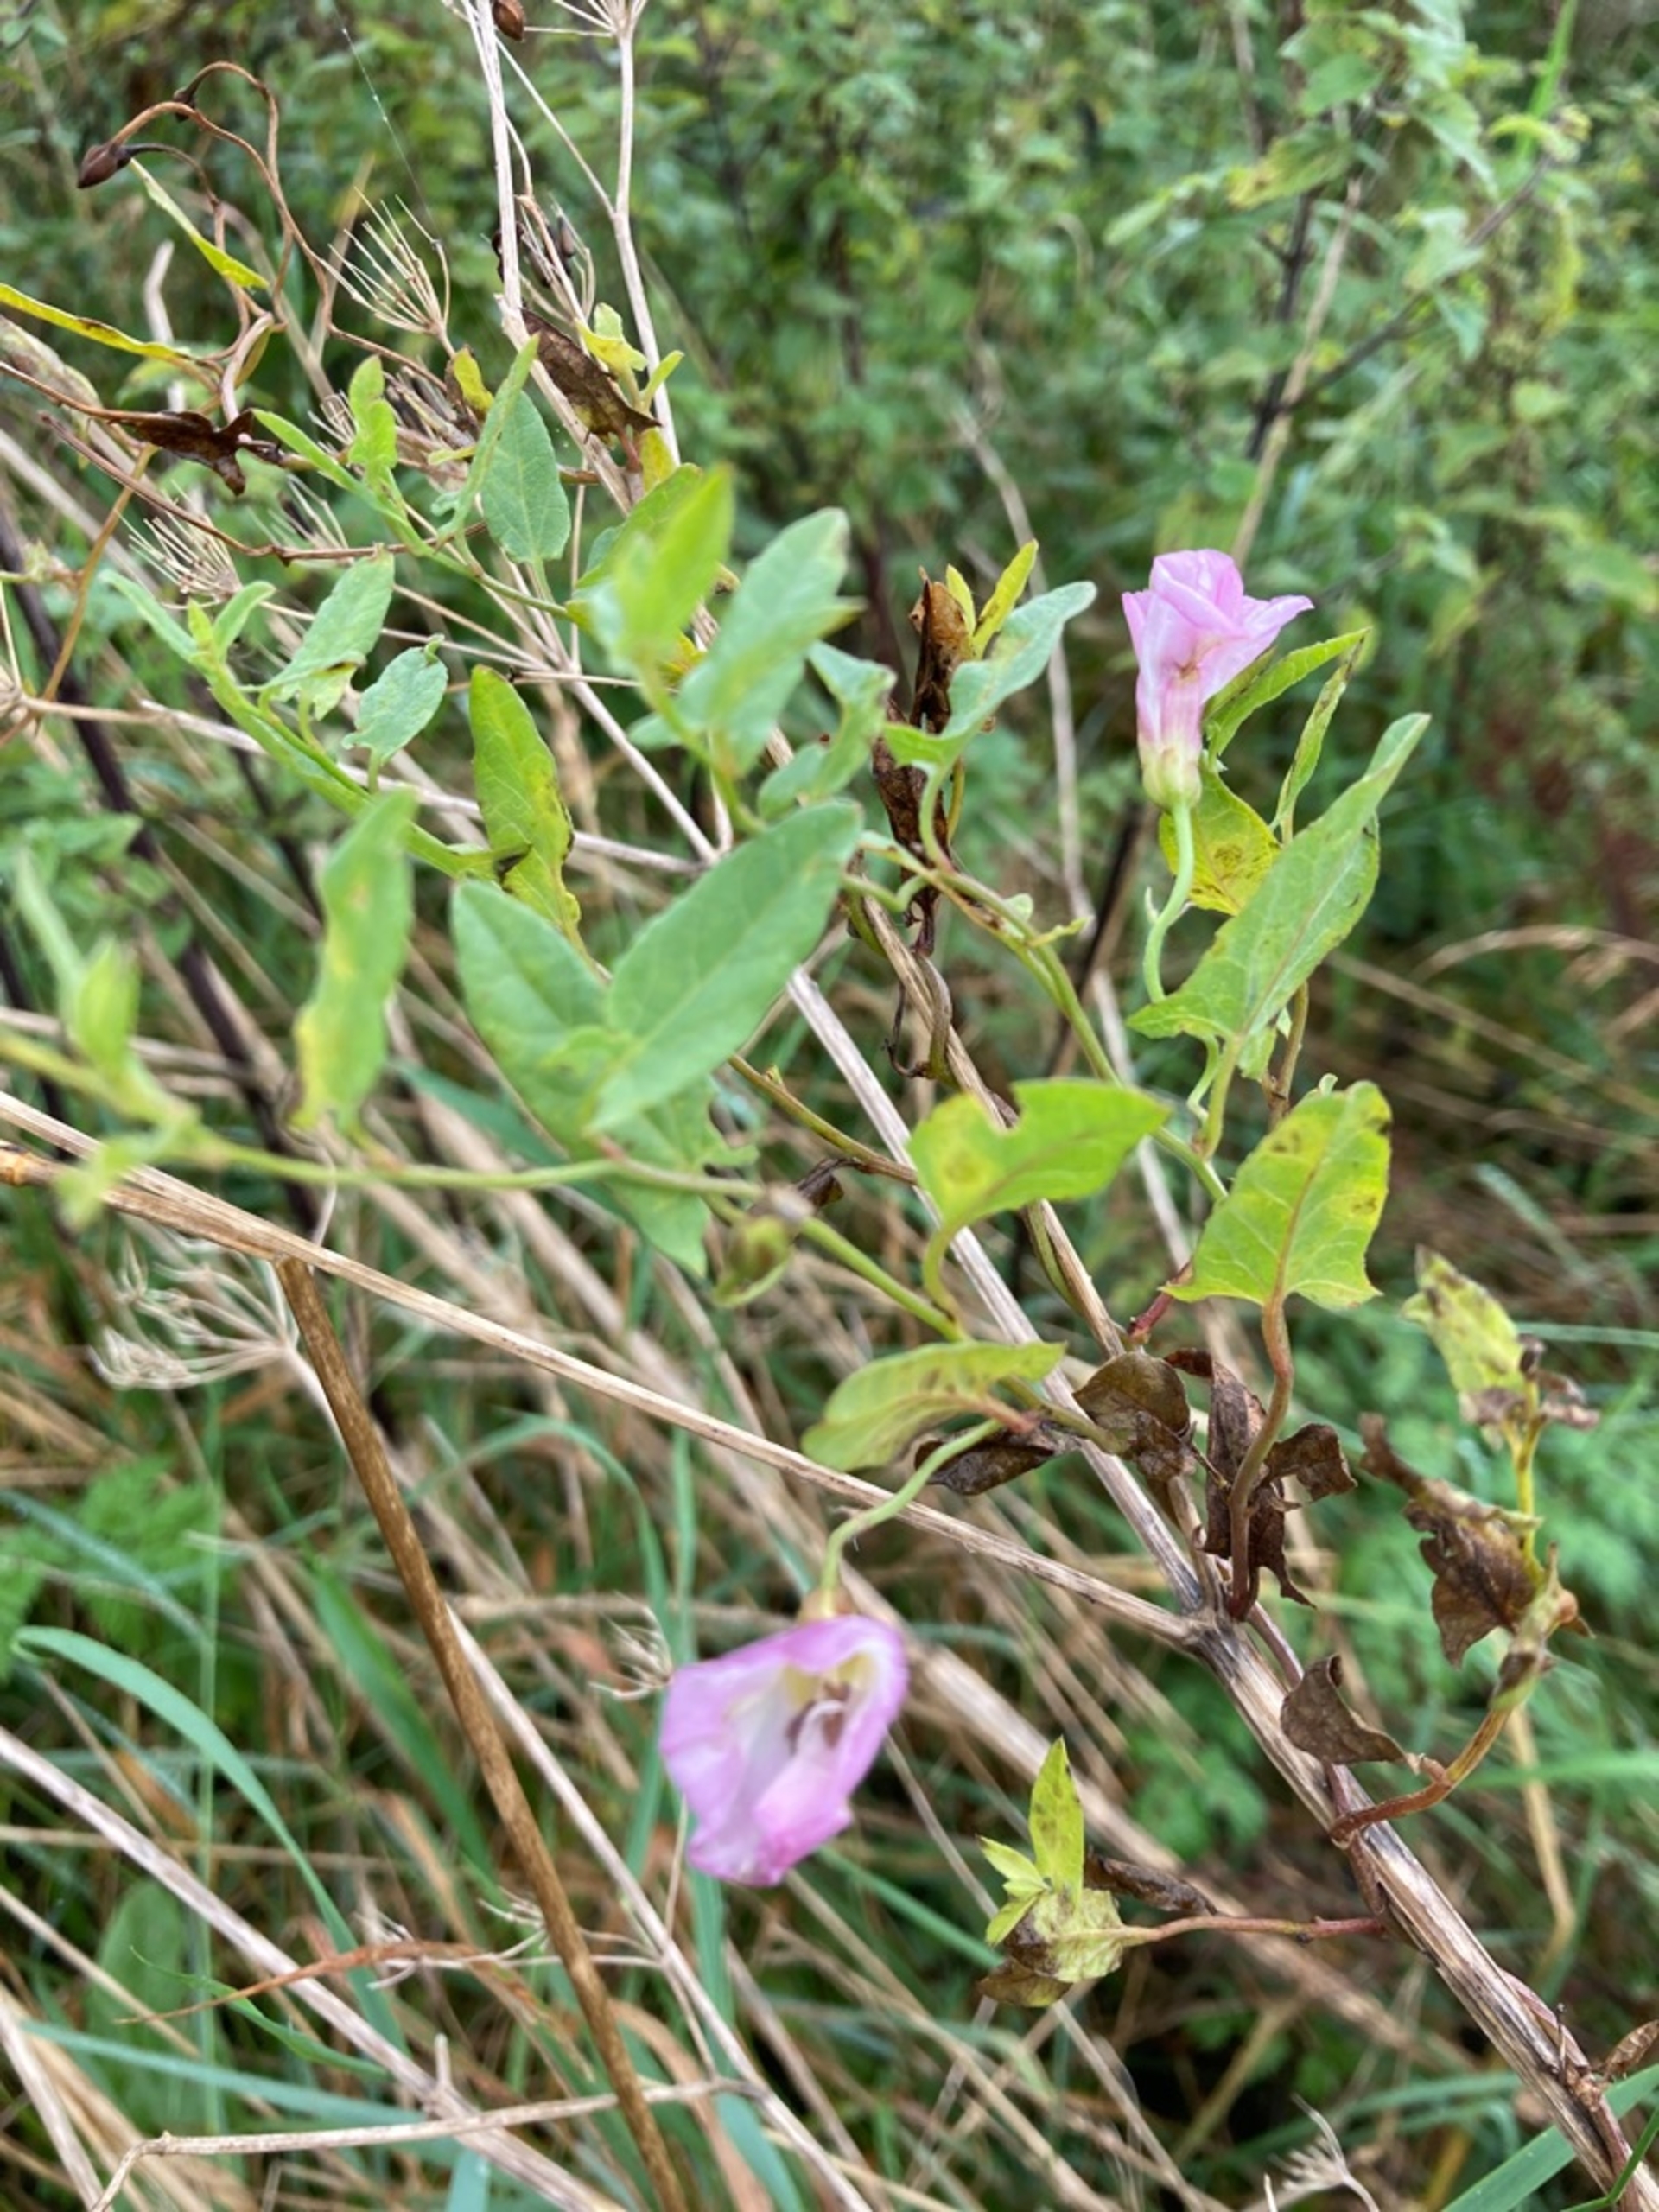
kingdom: Plantae
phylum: Tracheophyta
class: Magnoliopsida
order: Solanales
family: Convolvulaceae
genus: Convolvulus
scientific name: Convolvulus arvensis
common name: Ager-snerle
